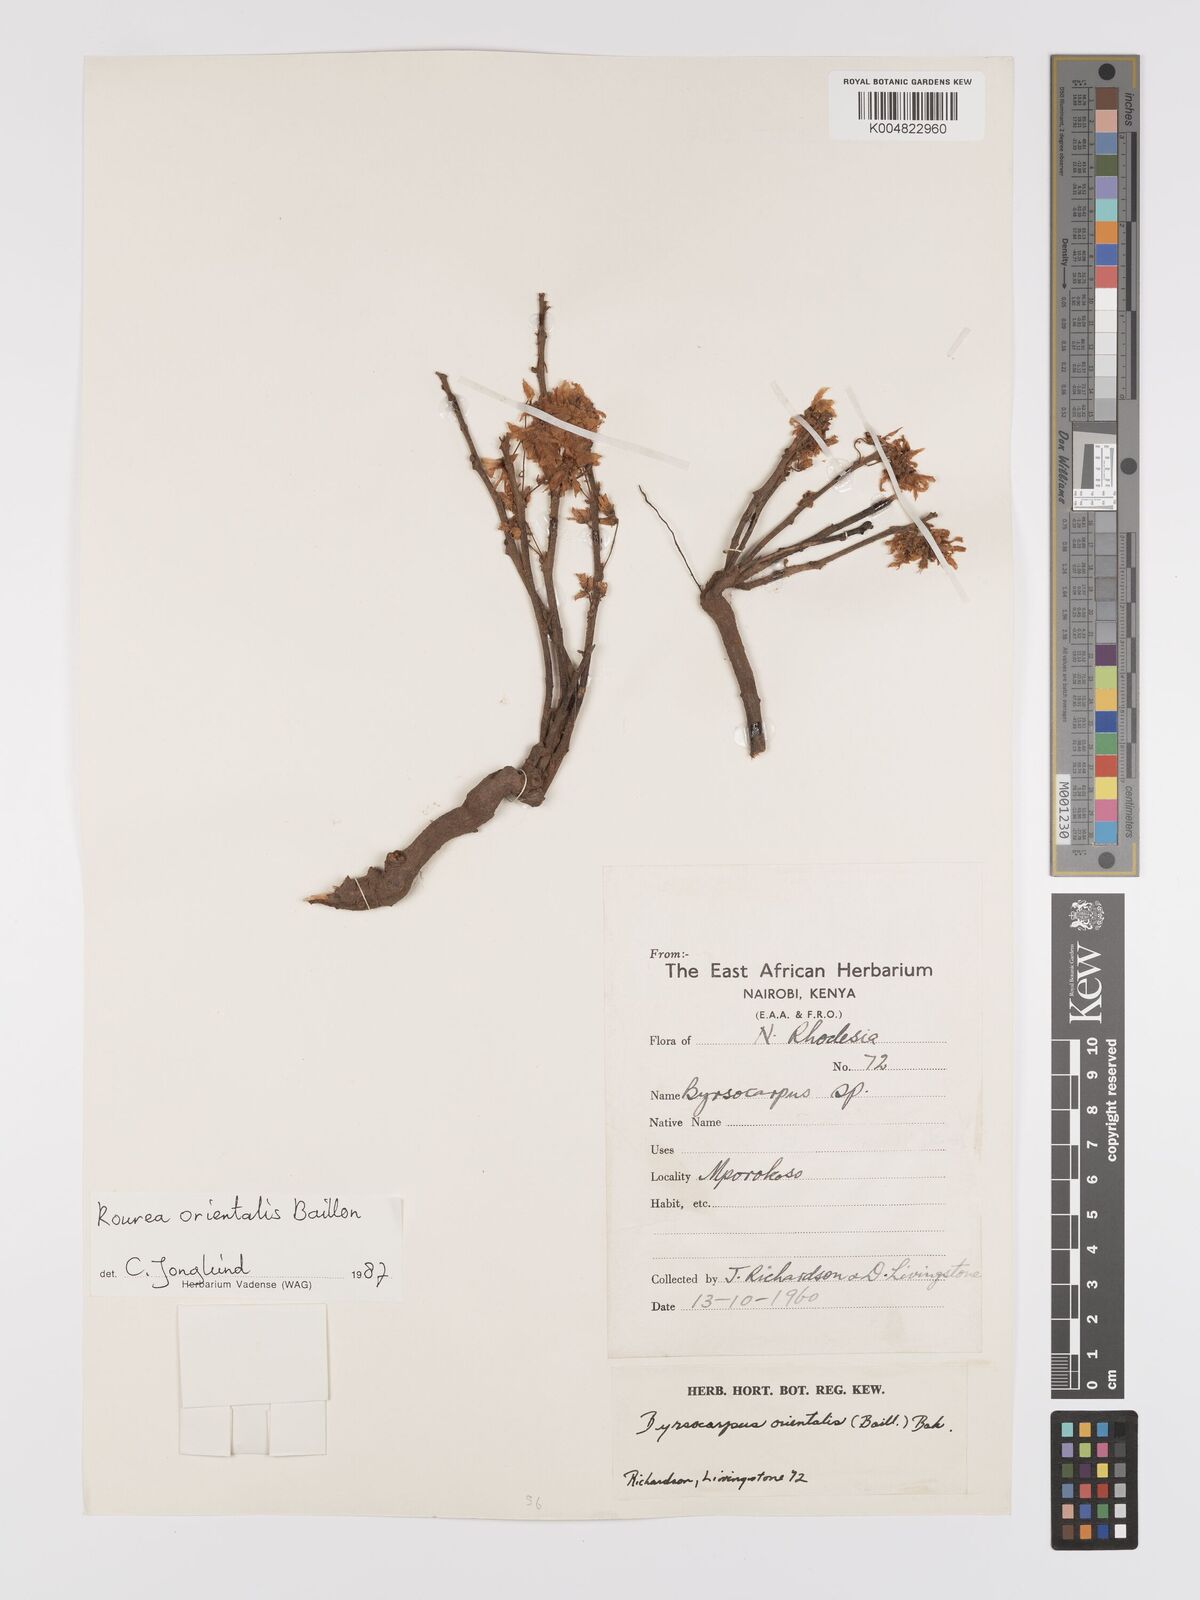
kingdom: Plantae
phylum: Tracheophyta
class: Magnoliopsida
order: Oxalidales
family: Connaraceae
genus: Rourea
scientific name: Rourea orientalis
